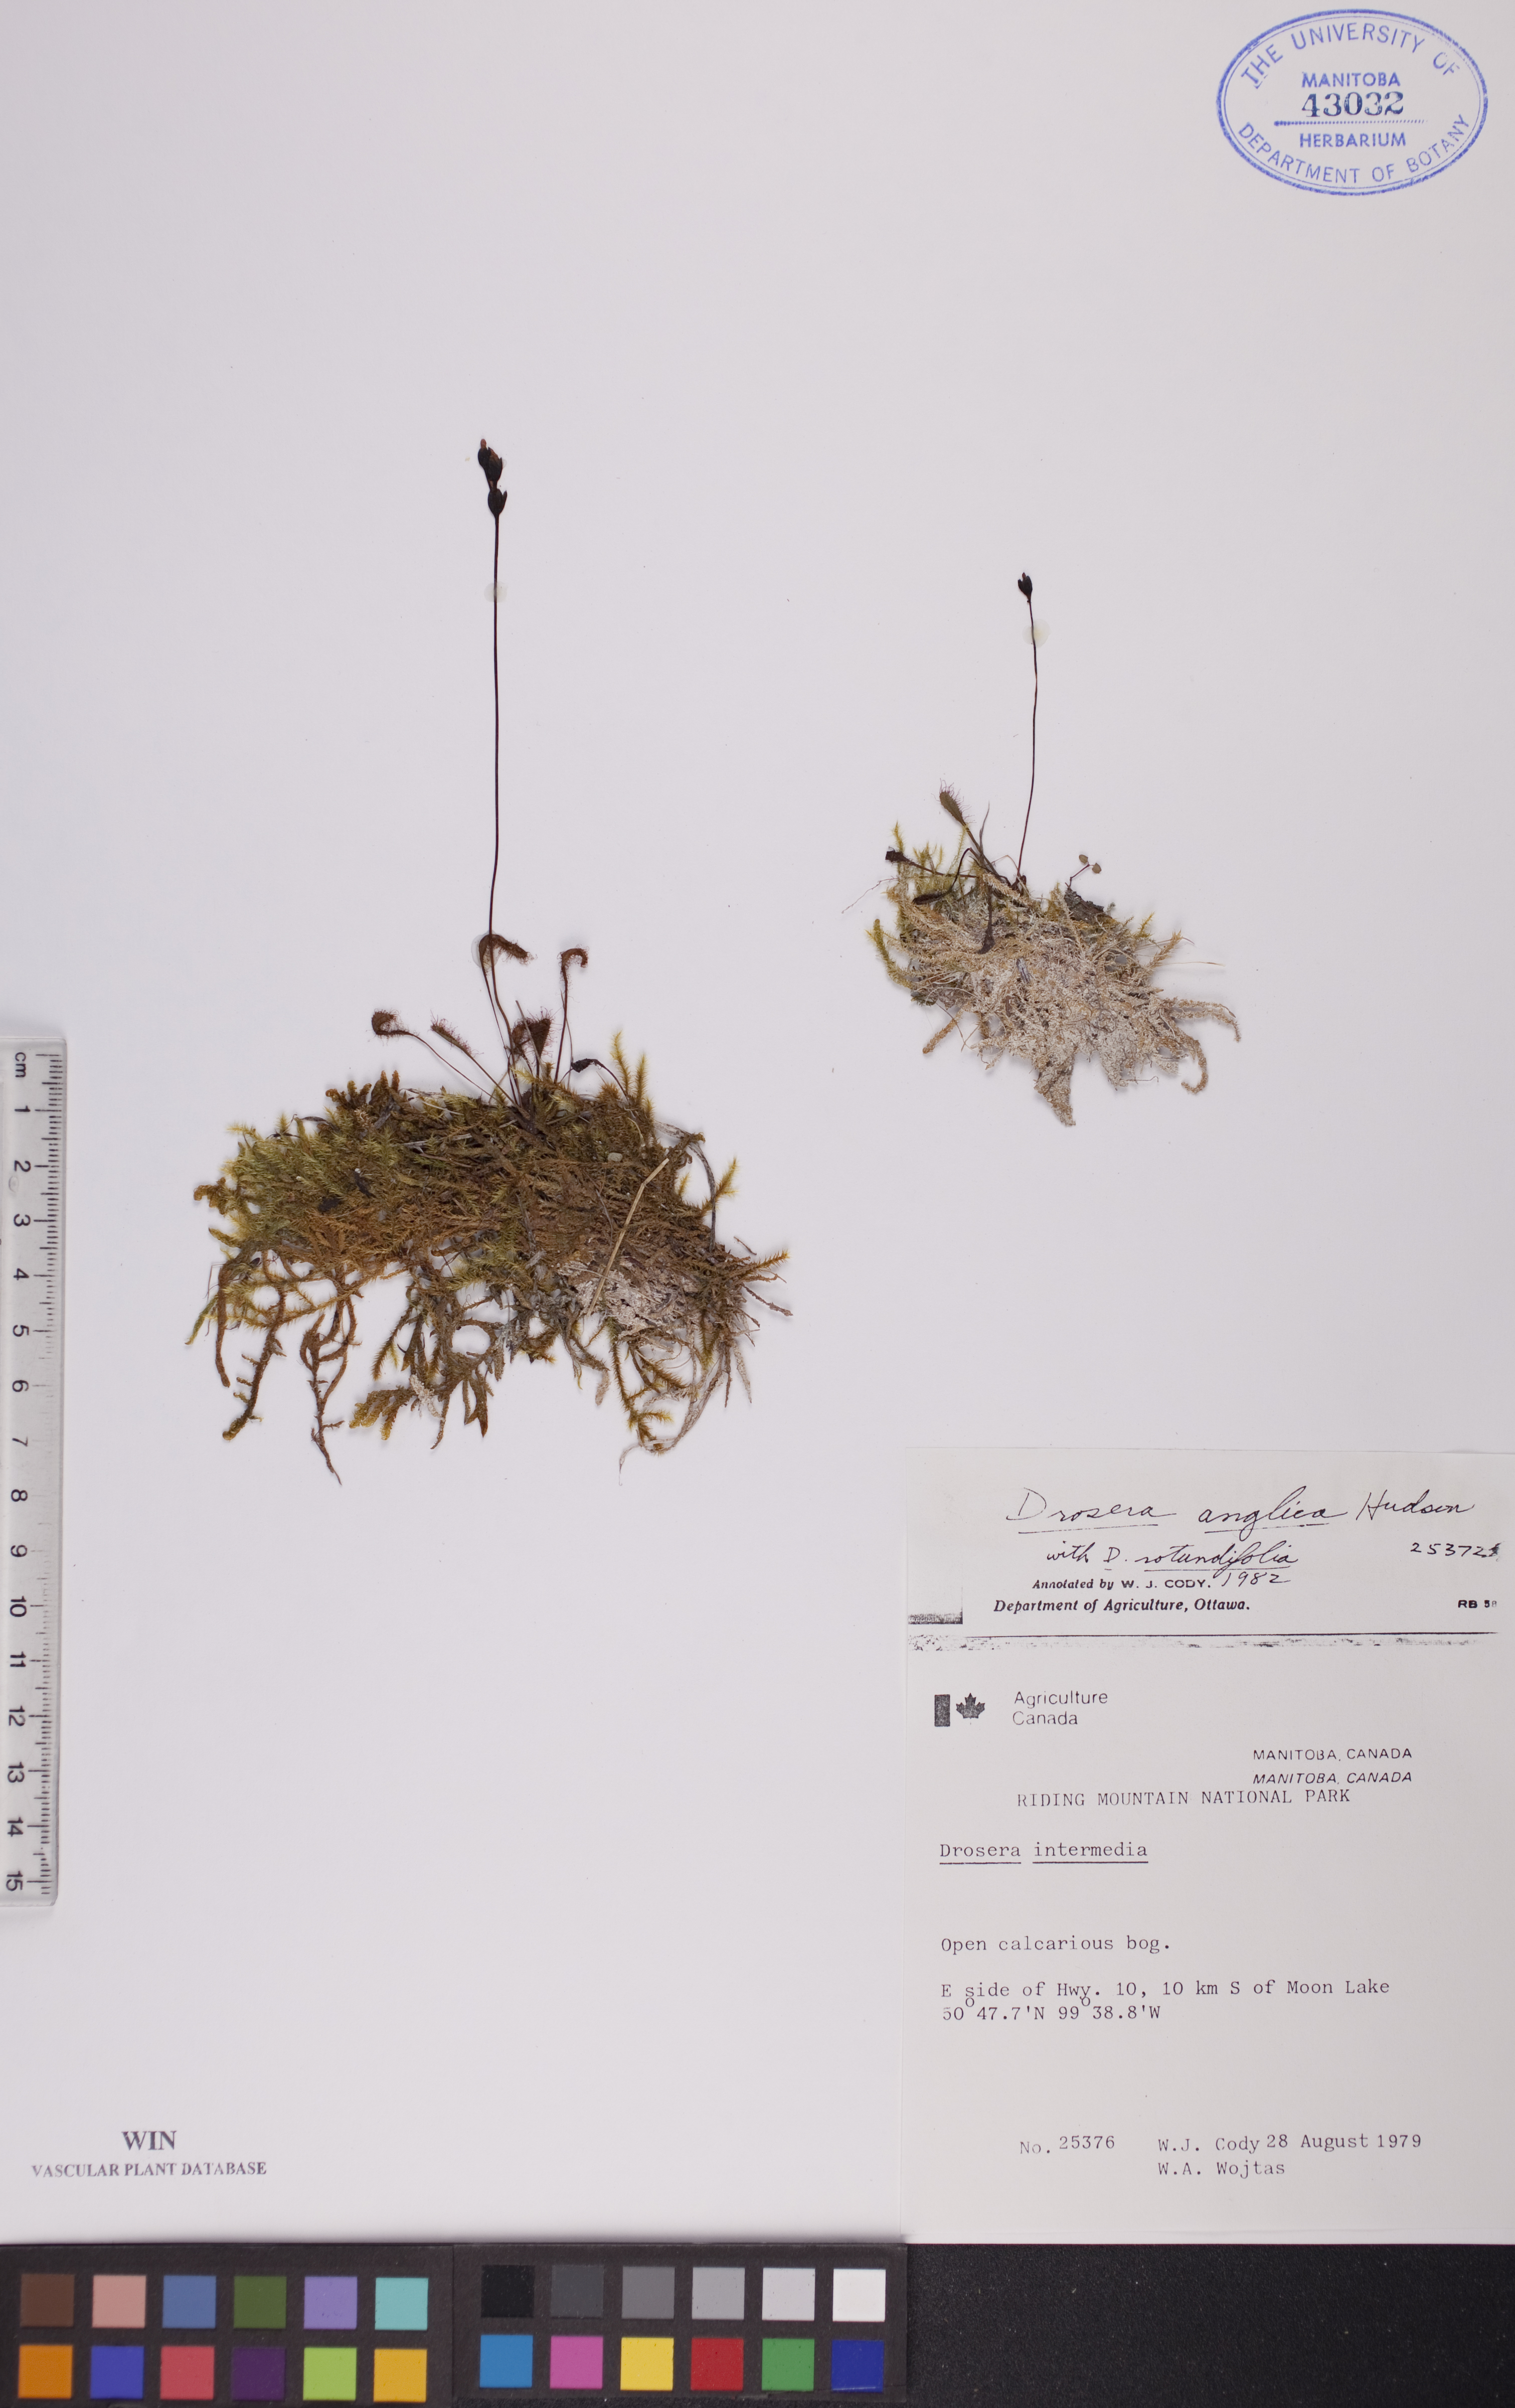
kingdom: Plantae
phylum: Tracheophyta
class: Magnoliopsida
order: Caryophyllales
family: Droseraceae
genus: Drosera
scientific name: Drosera anglica
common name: Great sundew
